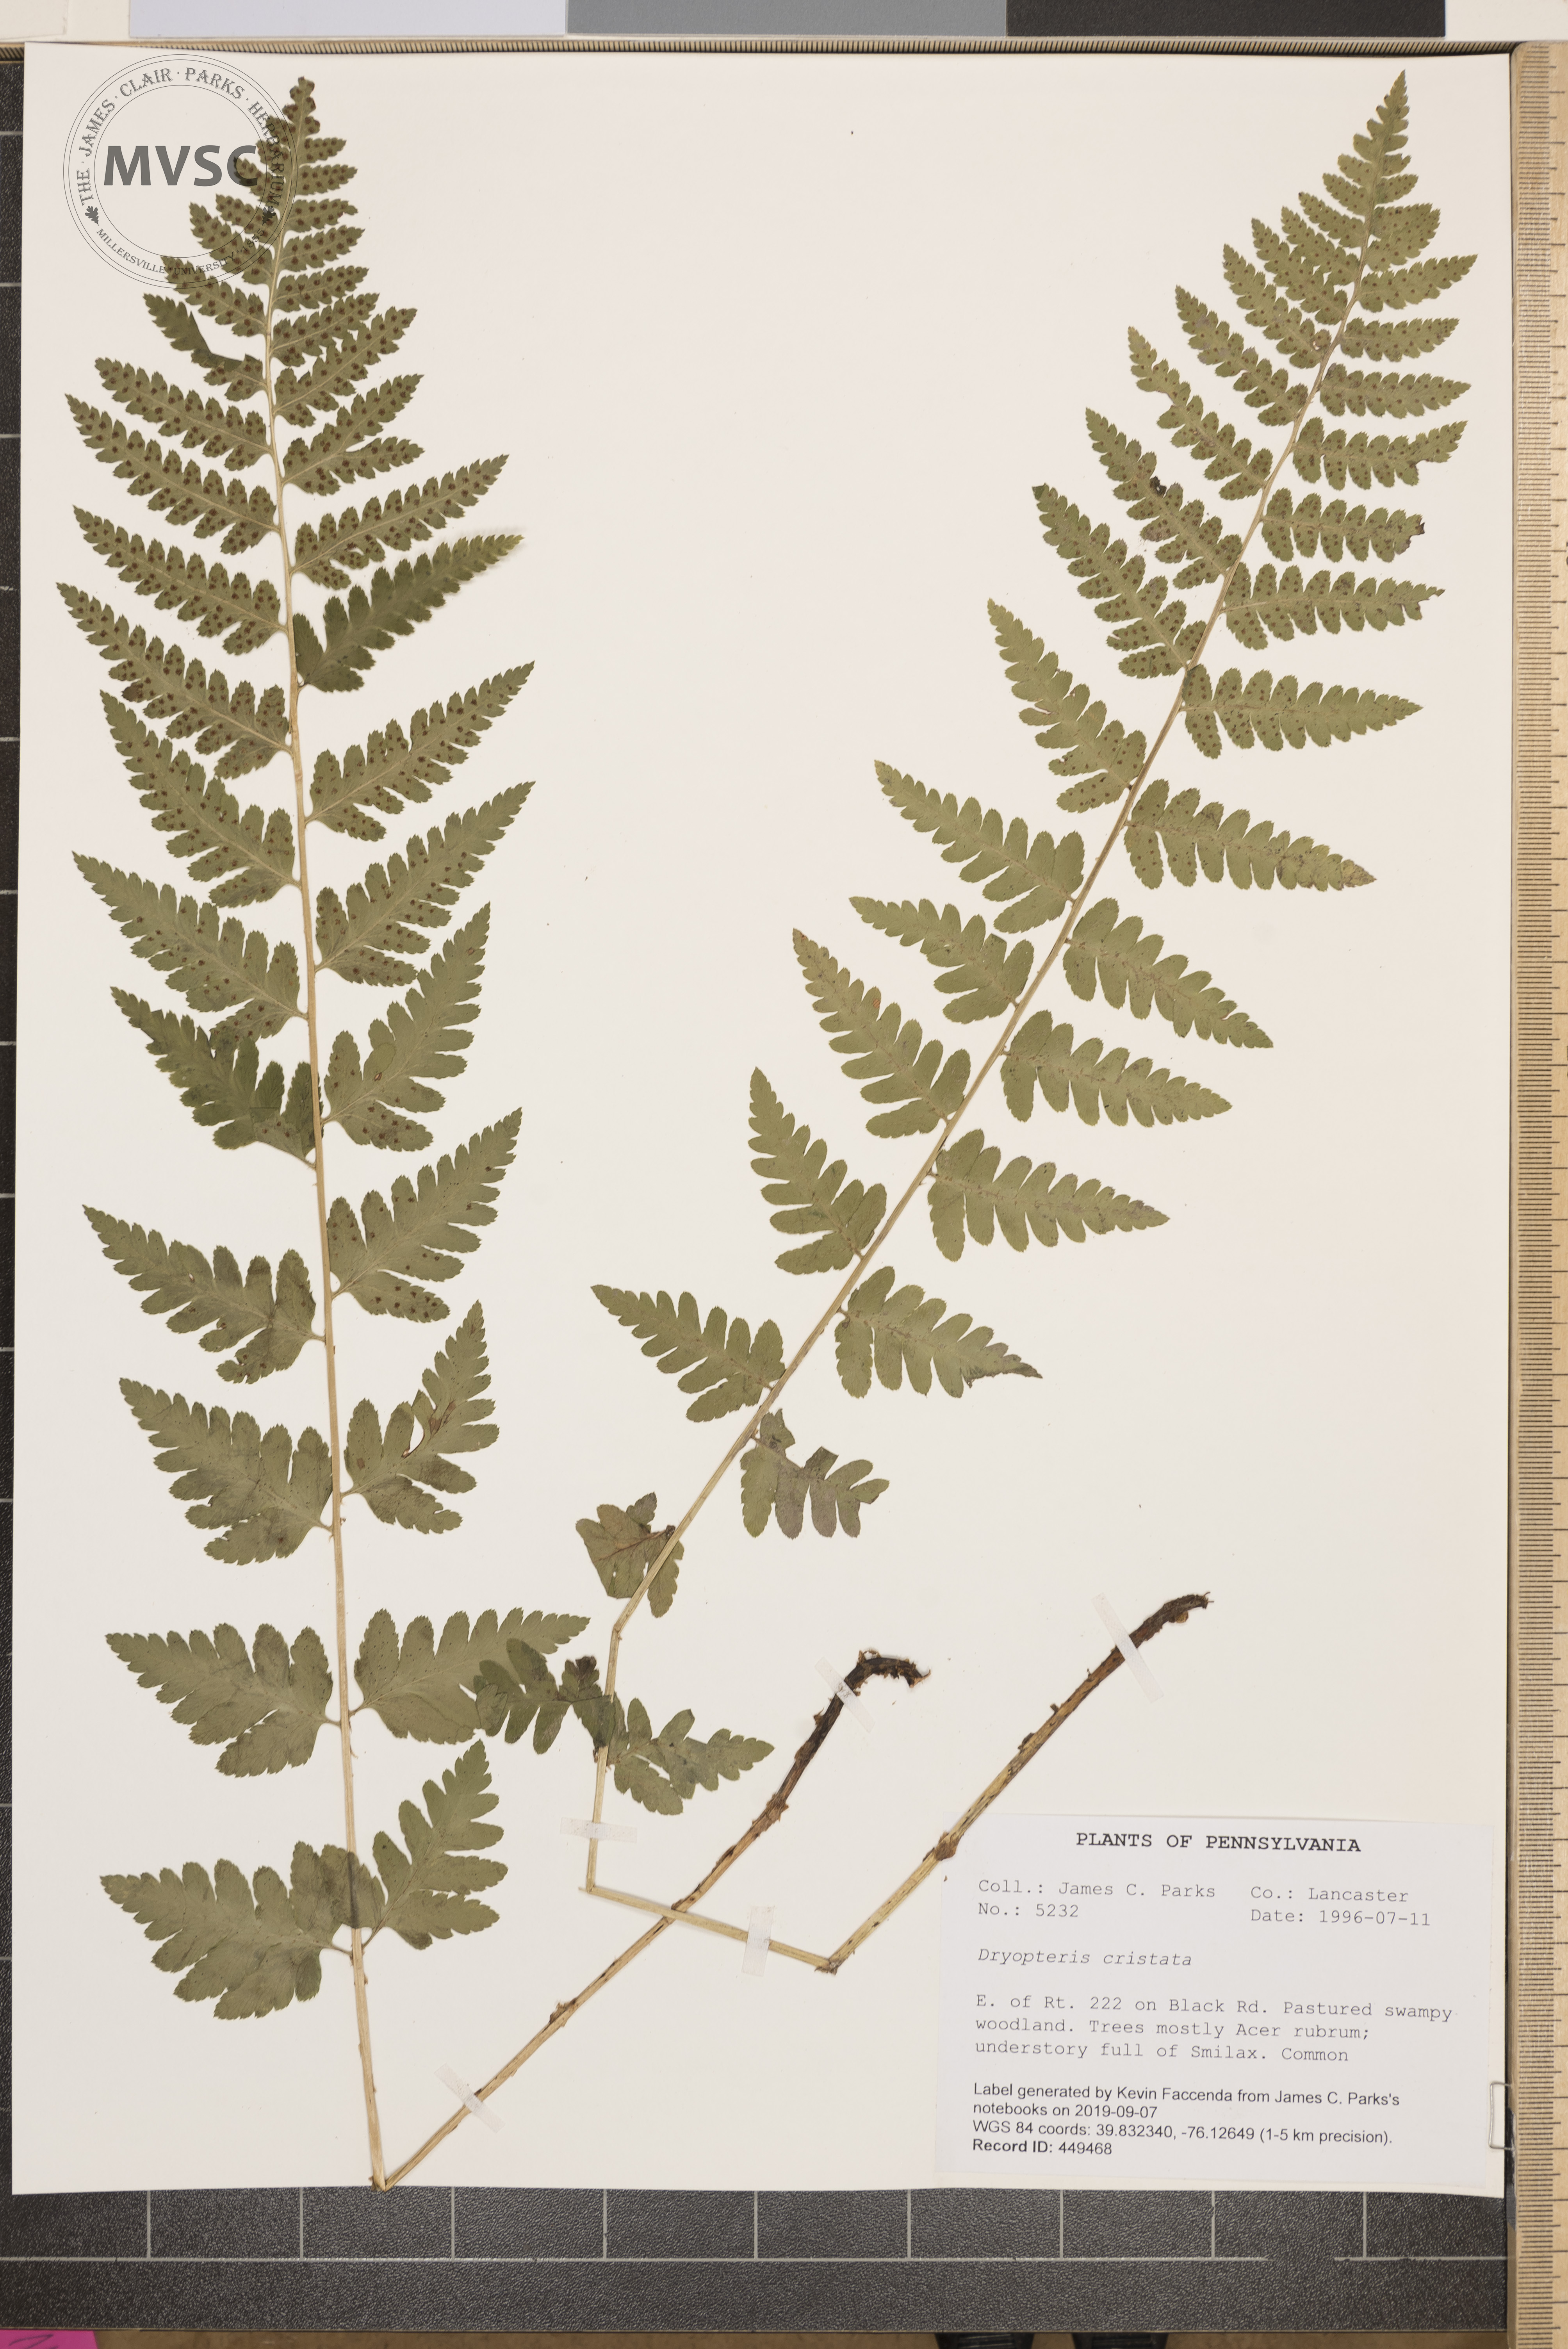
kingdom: Plantae
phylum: Tracheophyta
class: Polypodiopsida
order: Polypodiales
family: Dryopteridaceae
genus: Dryopteris
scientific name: Dryopteris cristata
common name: Crested wood fern
